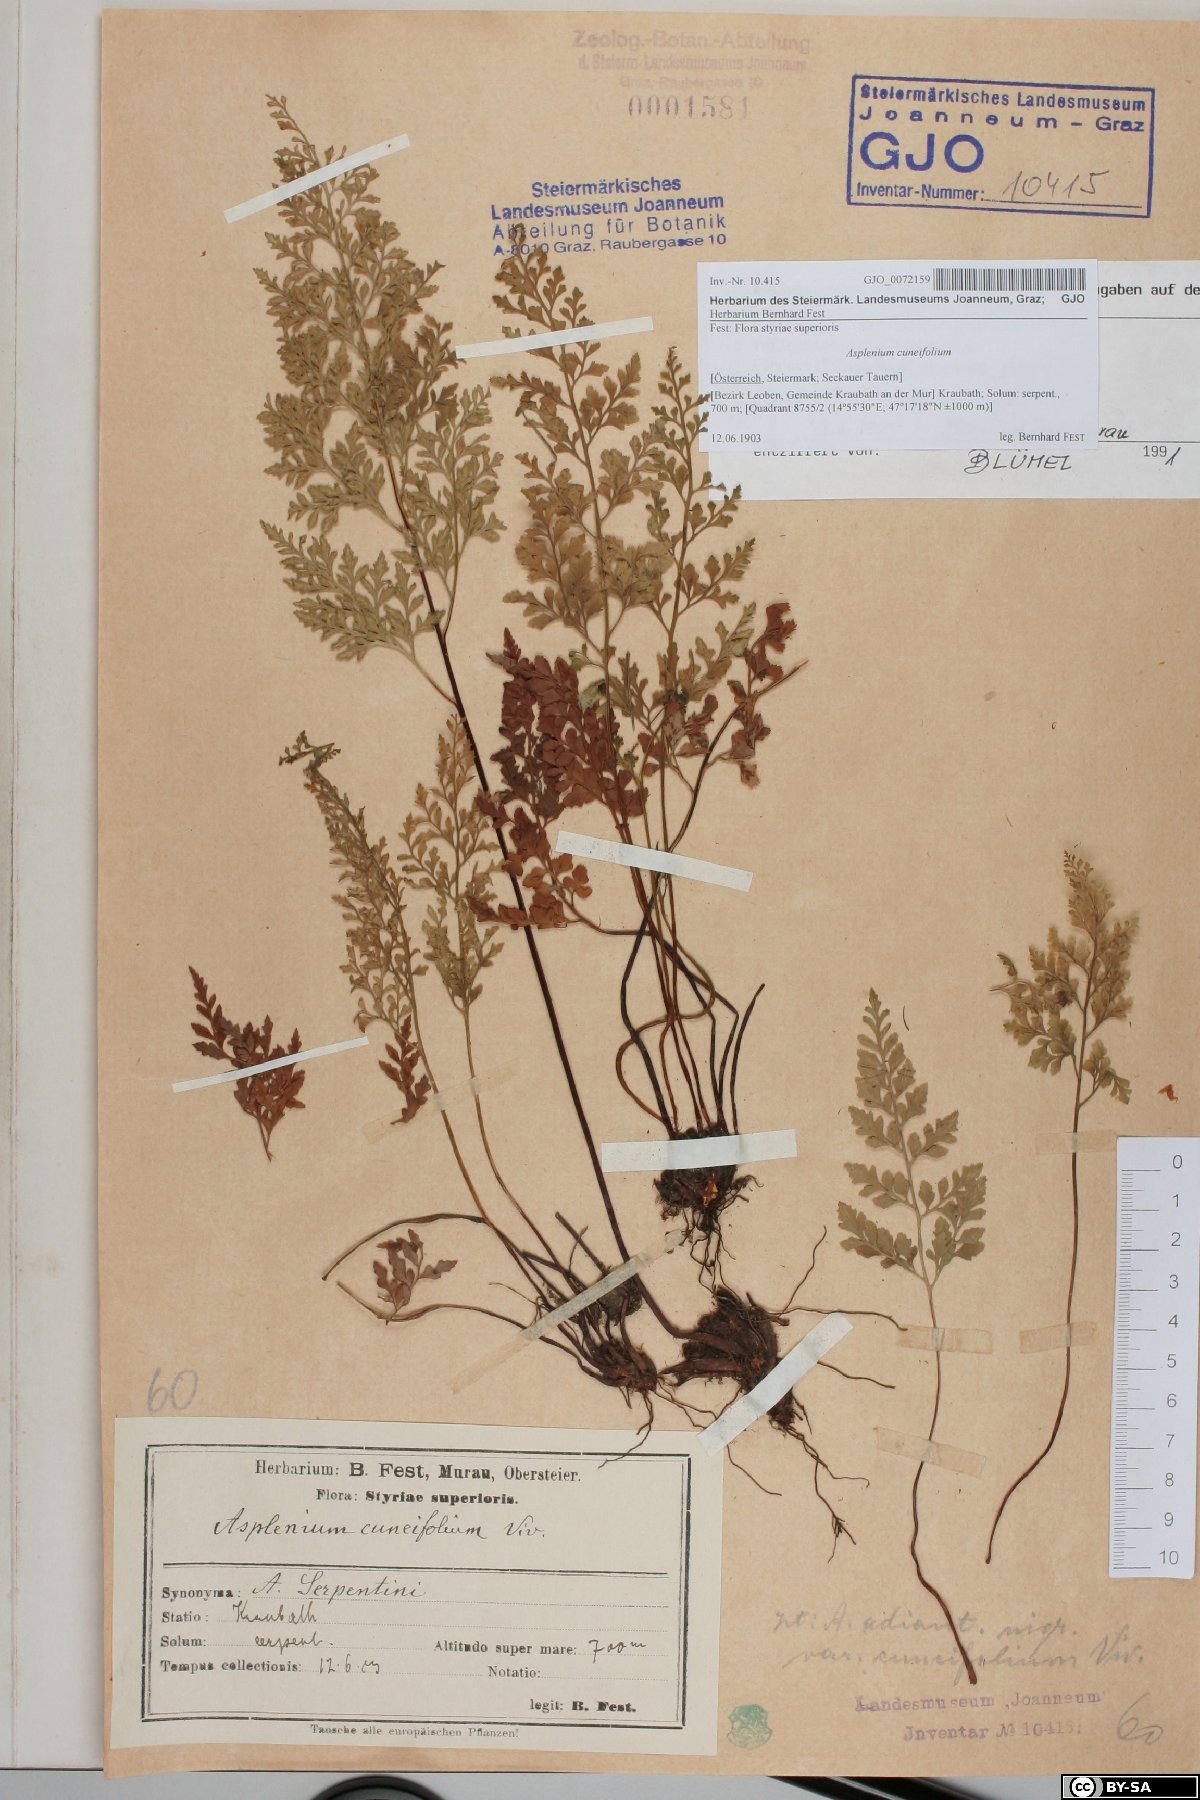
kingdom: Plantae
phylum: Tracheophyta
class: Polypodiopsida
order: Polypodiales
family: Aspleniaceae
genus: Asplenium
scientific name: Asplenium cuneifolium
